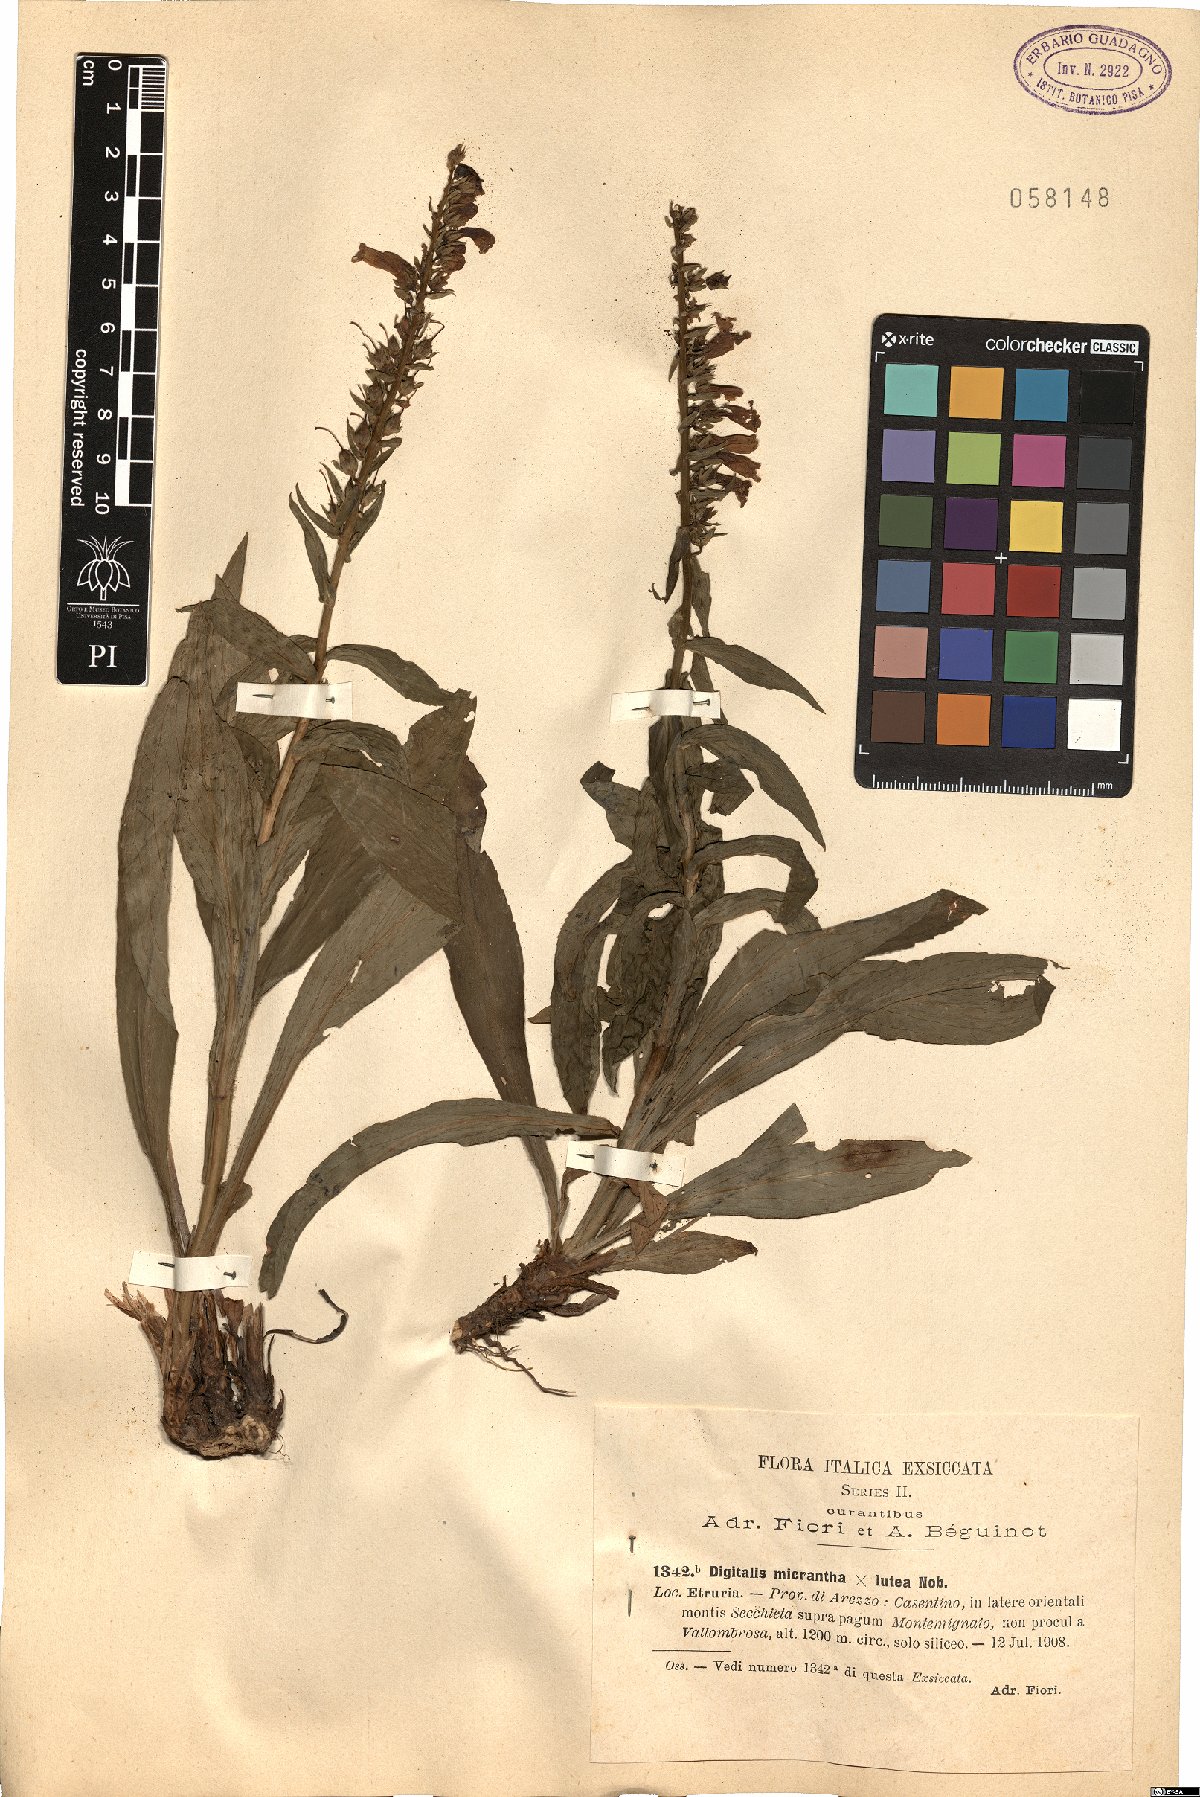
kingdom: Plantae
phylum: Tracheophyta
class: Magnoliopsida
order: Lamiales
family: Scrophulariaceae
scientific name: Scrophulariaceae
